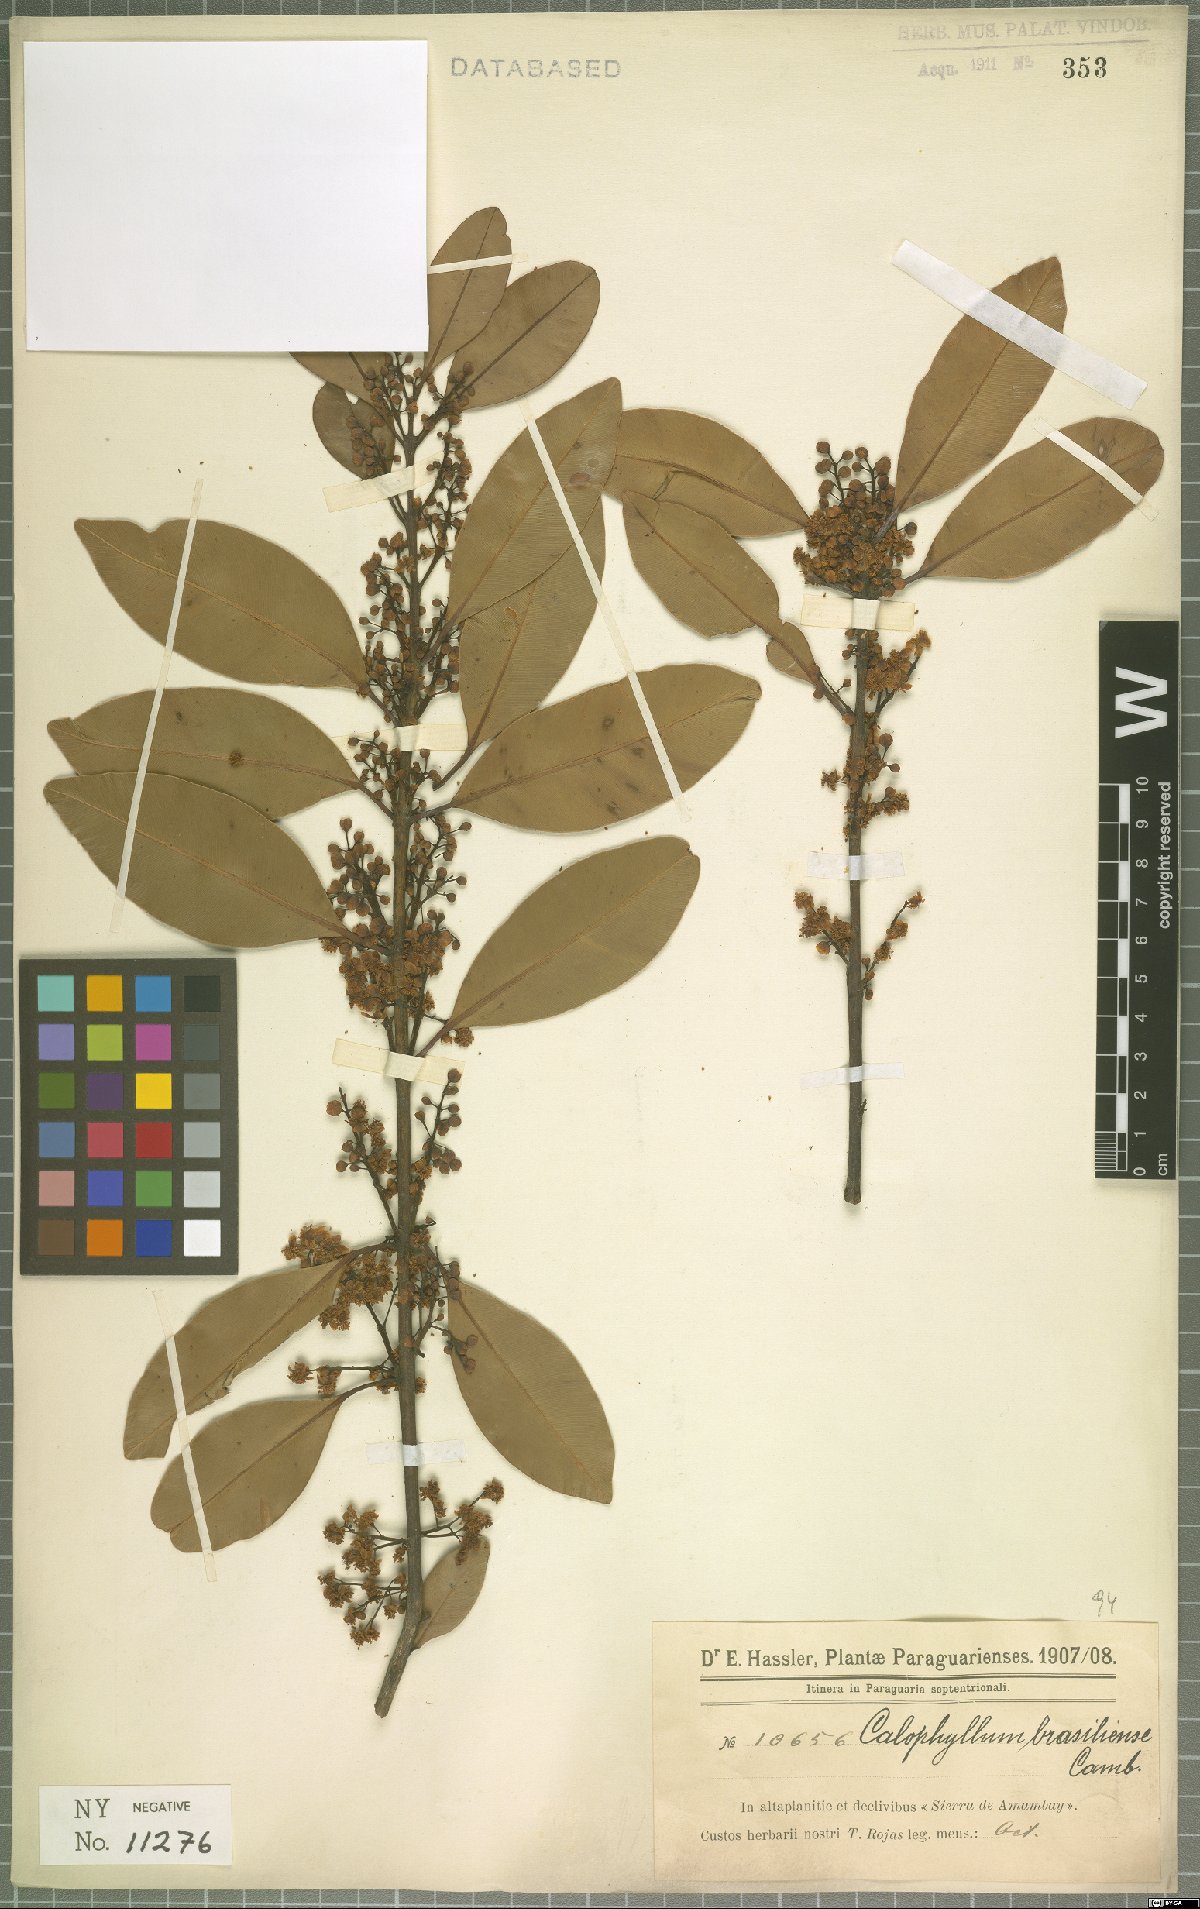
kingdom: Plantae
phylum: Tracheophyta
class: Magnoliopsida
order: Malpighiales
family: Calophyllaceae
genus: Calophyllum
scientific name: Calophyllum brasiliense
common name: Santa maria
